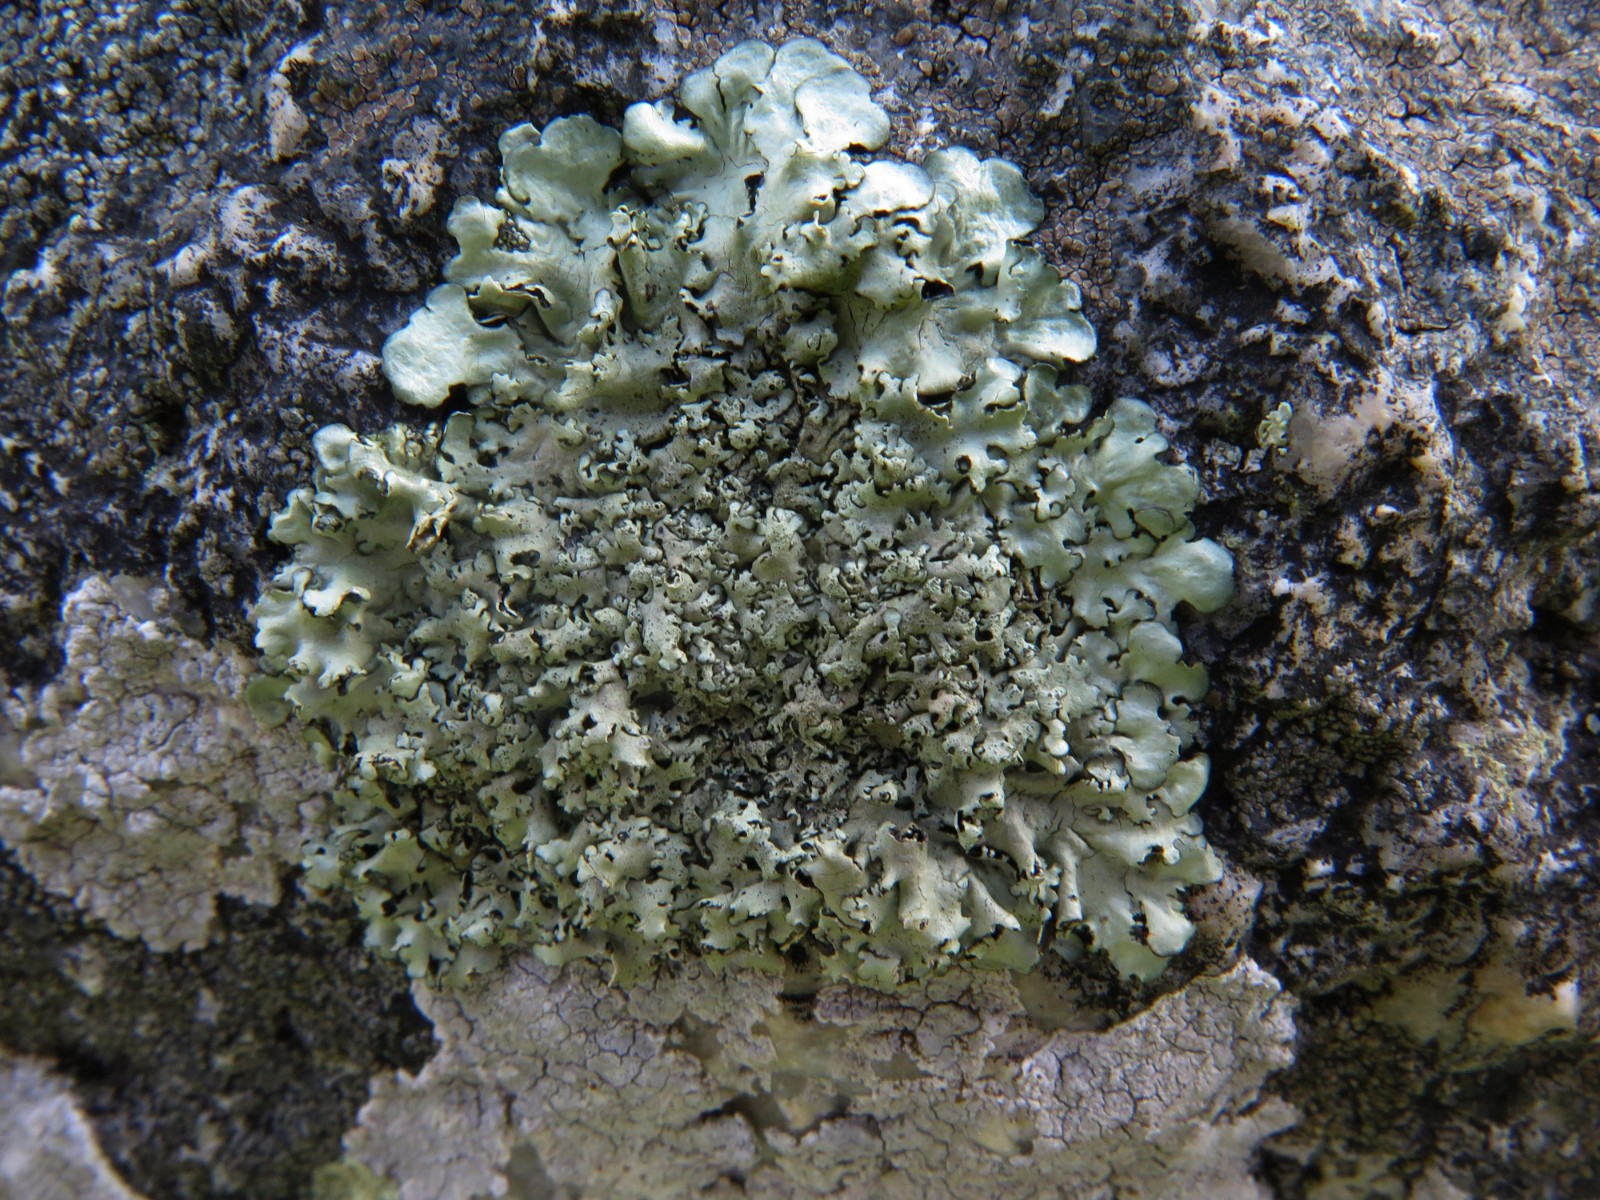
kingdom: Fungi
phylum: Ascomycota
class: Lecanoromycetes
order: Lecanorales
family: Parmeliaceae
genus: Xanthoparmelia
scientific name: Xanthoparmelia conspersa
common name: messing-skållav
